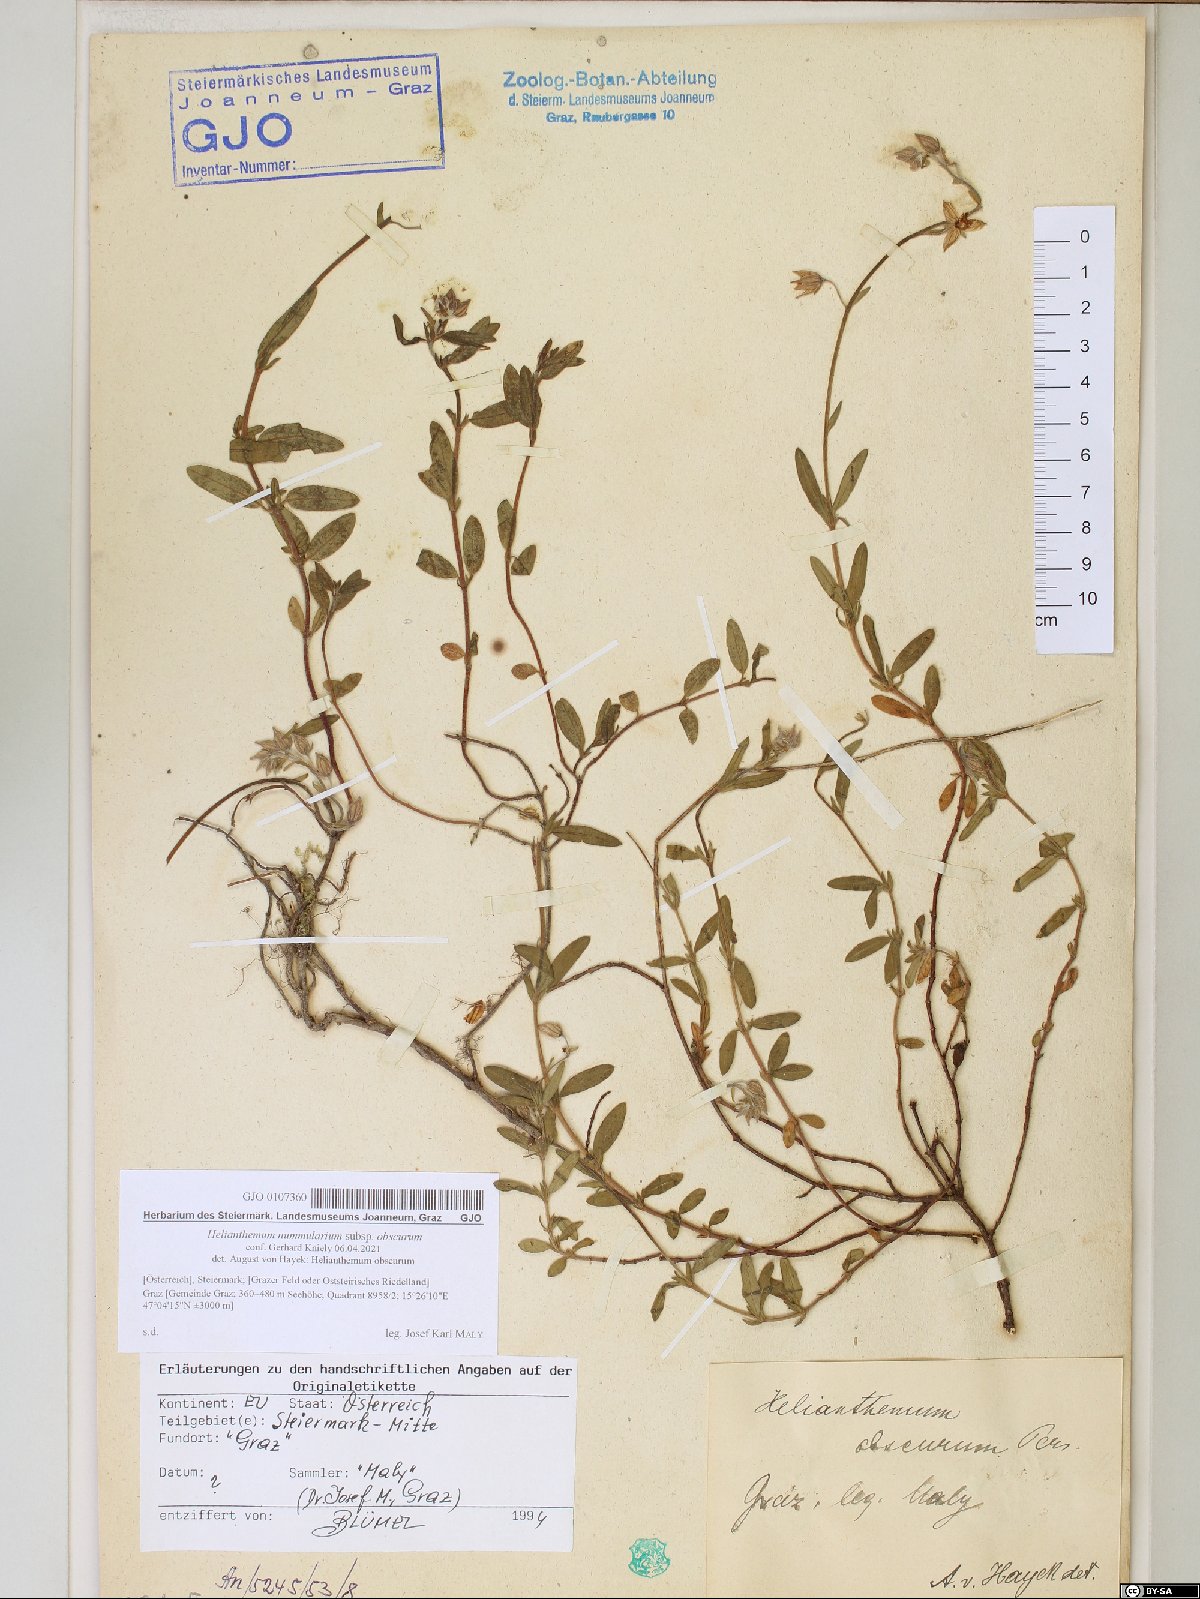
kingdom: Plantae
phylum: Tracheophyta
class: Magnoliopsida
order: Malvales
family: Cistaceae
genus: Helianthemum
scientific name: Helianthemum nummularium
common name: Common rock-rose
